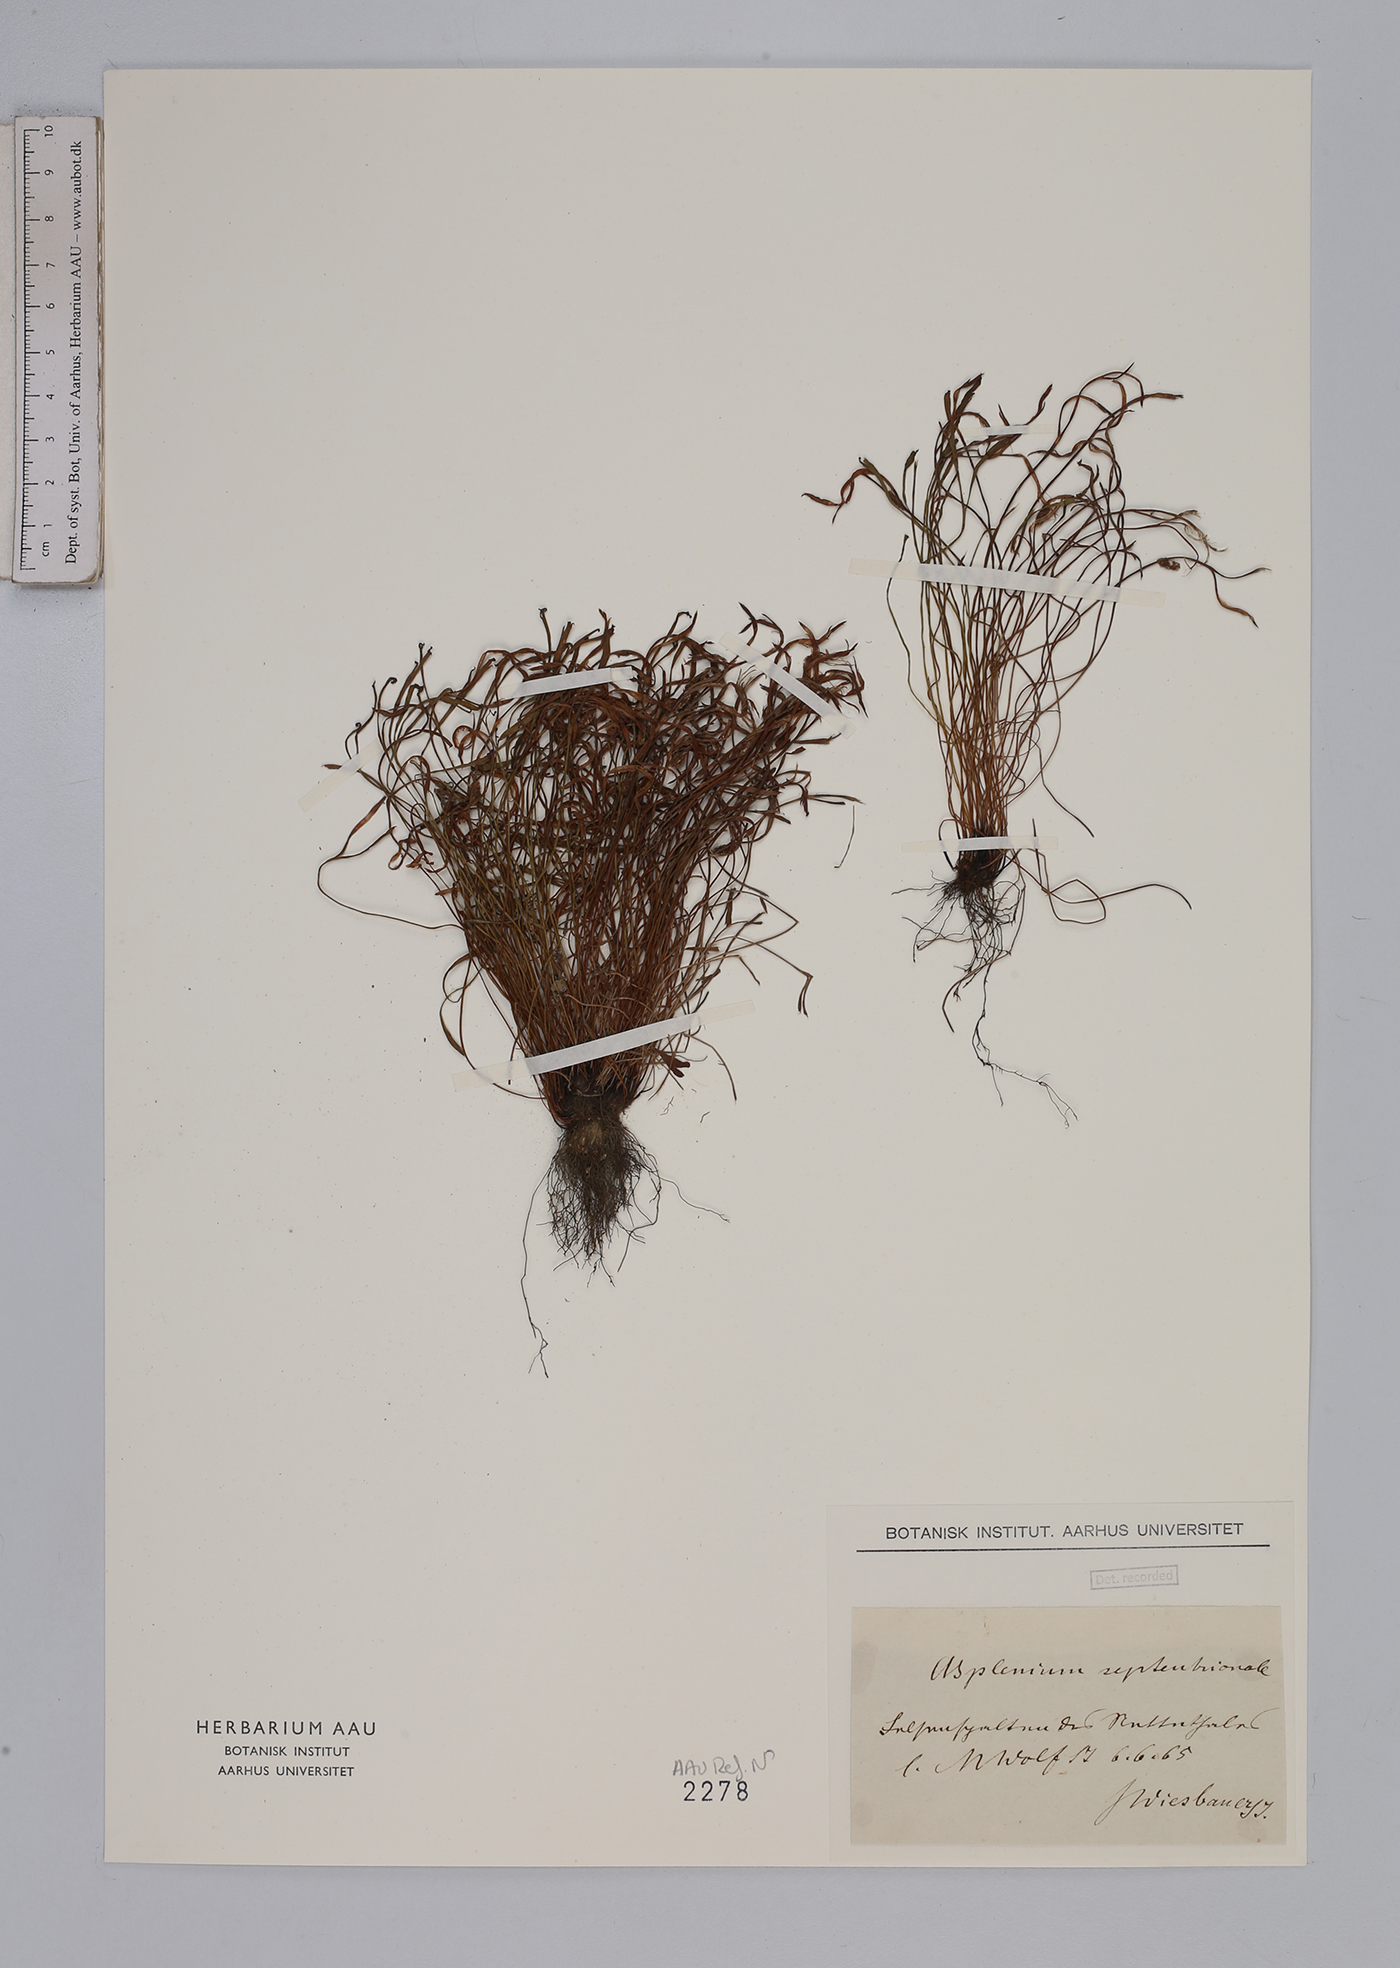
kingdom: Plantae
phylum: Tracheophyta
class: Polypodiopsida
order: Polypodiales
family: Aspleniaceae
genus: Asplenium
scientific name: Asplenium septentrionale
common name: Forked spleenwort
